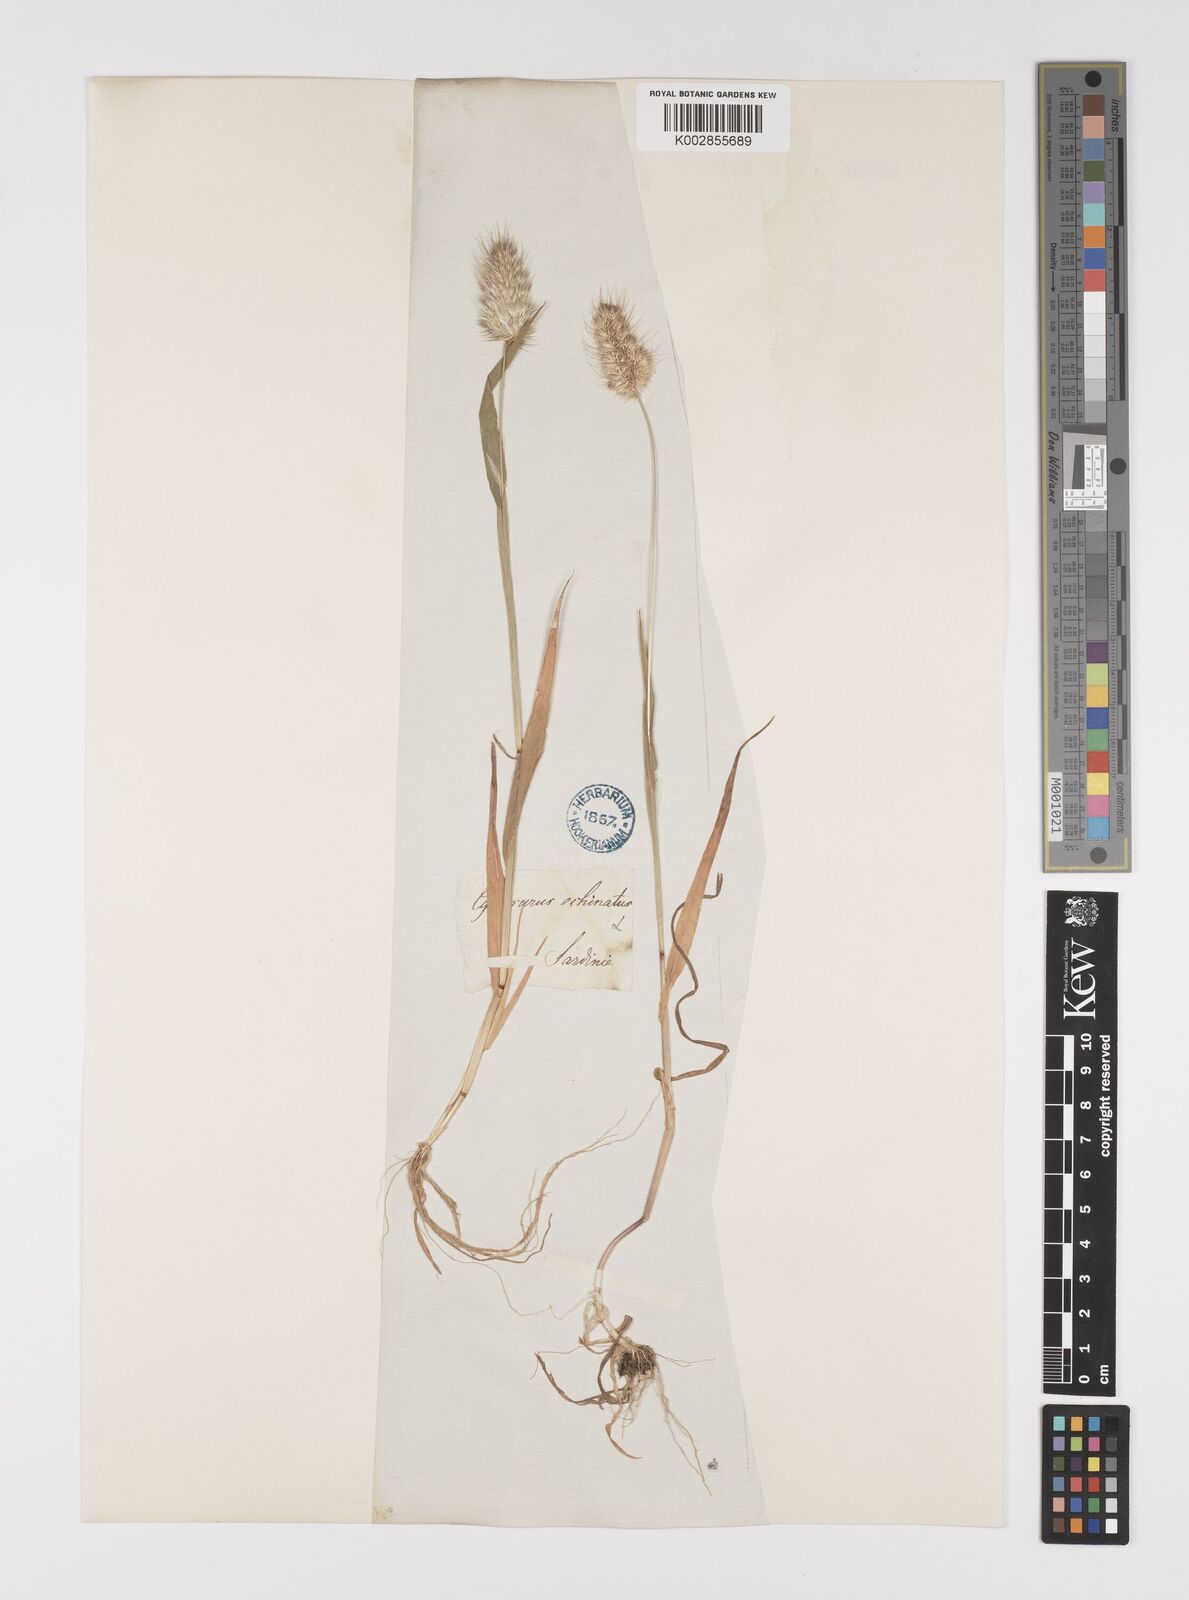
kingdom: Plantae
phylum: Tracheophyta
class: Liliopsida
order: Poales
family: Poaceae
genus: Cynosurus
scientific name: Cynosurus echinatus
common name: Rough dog's-tail
